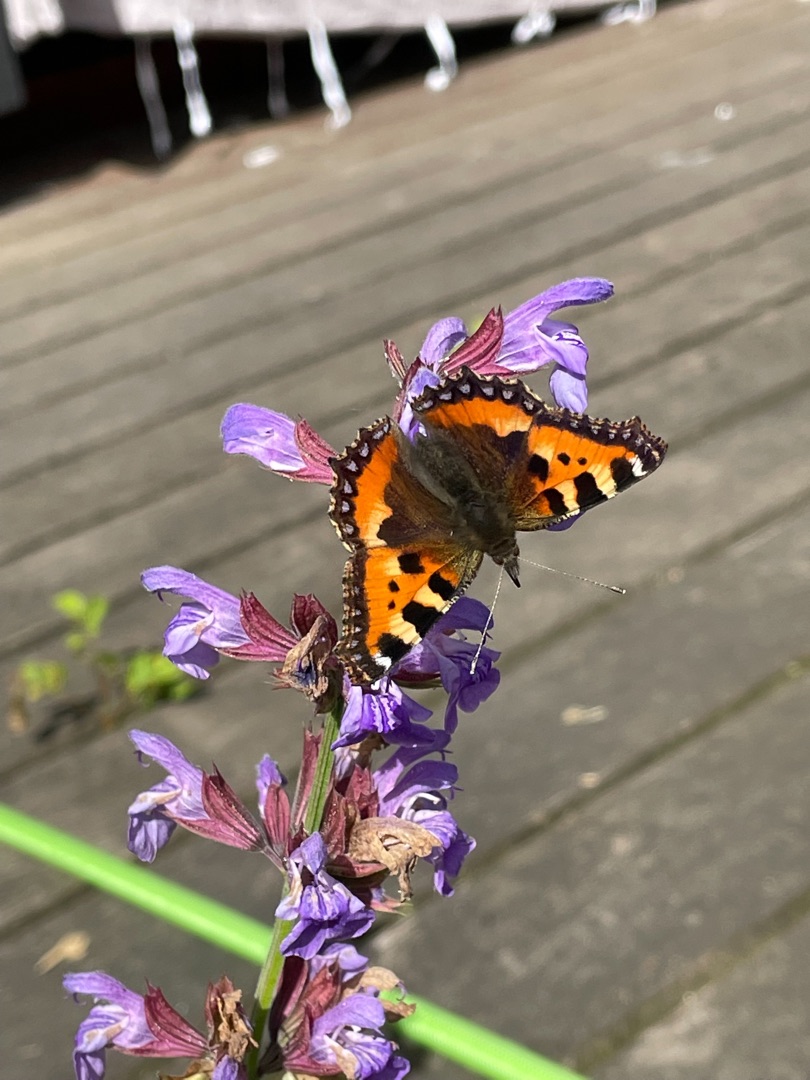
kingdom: Animalia
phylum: Arthropoda
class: Insecta
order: Lepidoptera
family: Nymphalidae
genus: Aglais
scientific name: Aglais urticae
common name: Nældens takvinge
